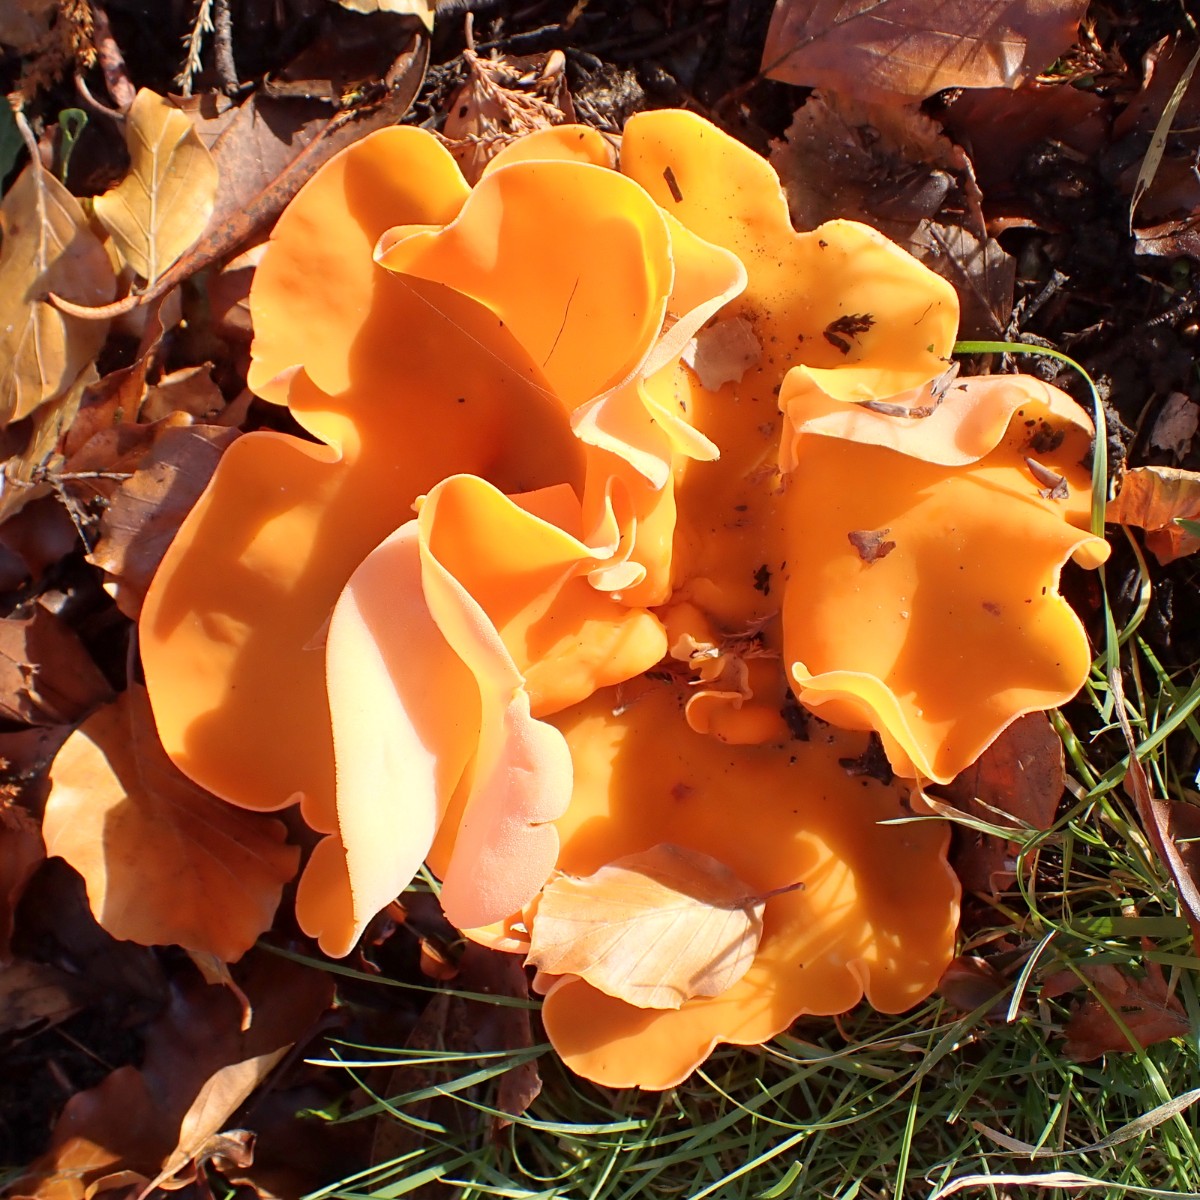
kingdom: Fungi
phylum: Ascomycota
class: Pezizomycetes
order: Pezizales
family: Pyronemataceae
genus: Aleuria
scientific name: Aleuria aurantia
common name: almindelig orangebæger
